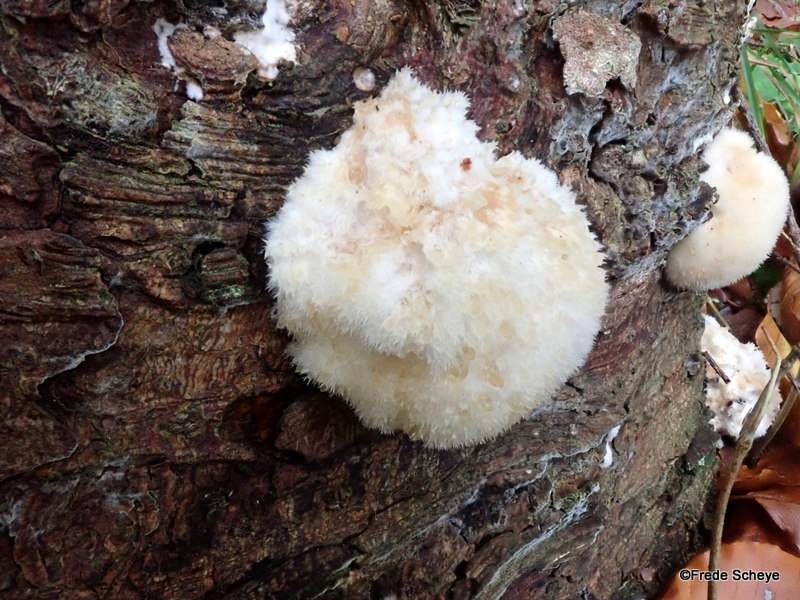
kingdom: Fungi
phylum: Basidiomycota
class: Agaricomycetes
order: Polyporales
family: Dacryobolaceae
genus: Postia
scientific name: Postia ptychogaster
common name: støvende kødporesvamp
